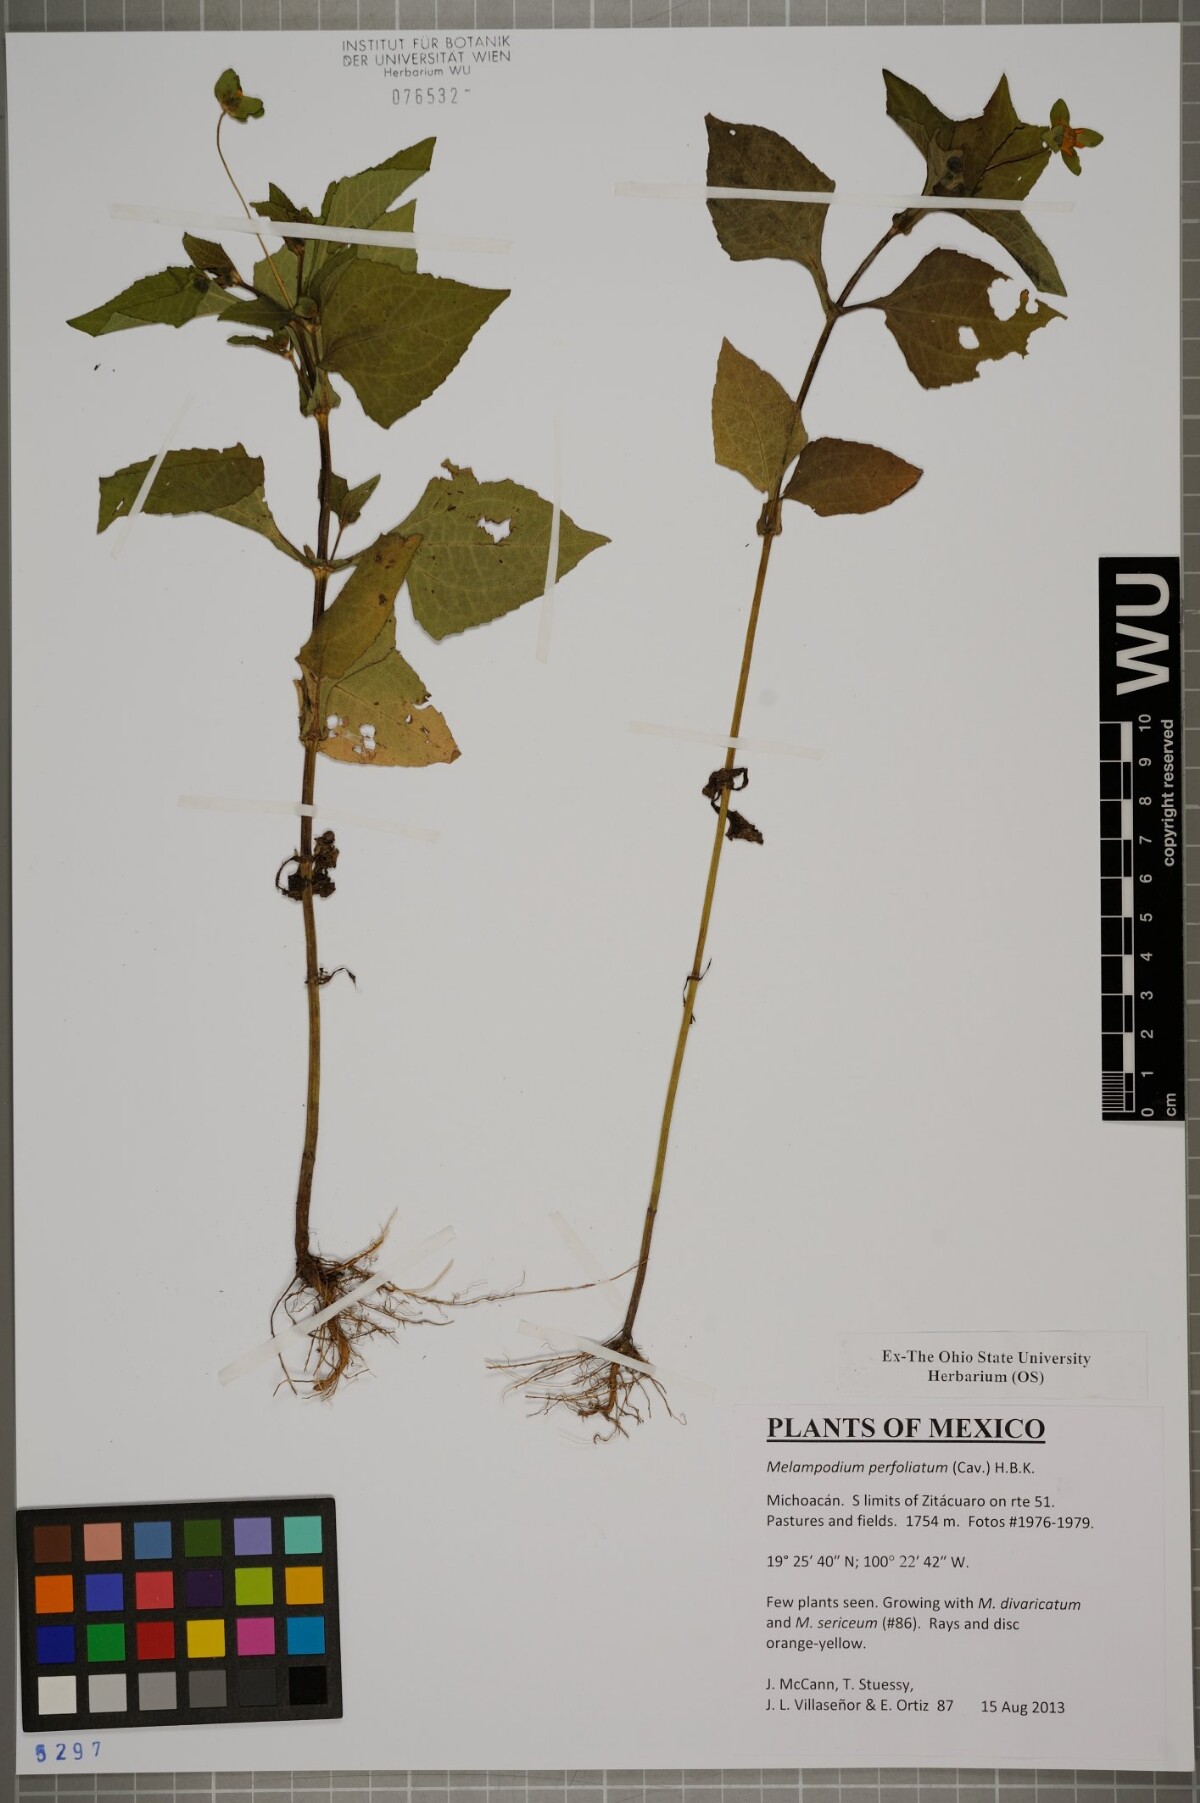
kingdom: Plantae
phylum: Tracheophyta
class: Magnoliopsida
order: Asterales
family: Asteraceae
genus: Melampodium
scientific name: Melampodium perfoliatum
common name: Perfoliate blackfoot
